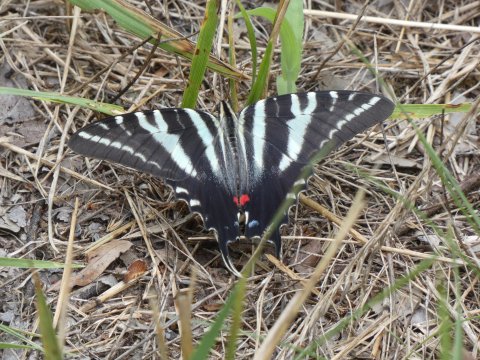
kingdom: Animalia
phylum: Arthropoda
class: Insecta
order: Lepidoptera
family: Papilionidae
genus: Protographium
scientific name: Protographium marcellus
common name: Zebra Swallowtail
